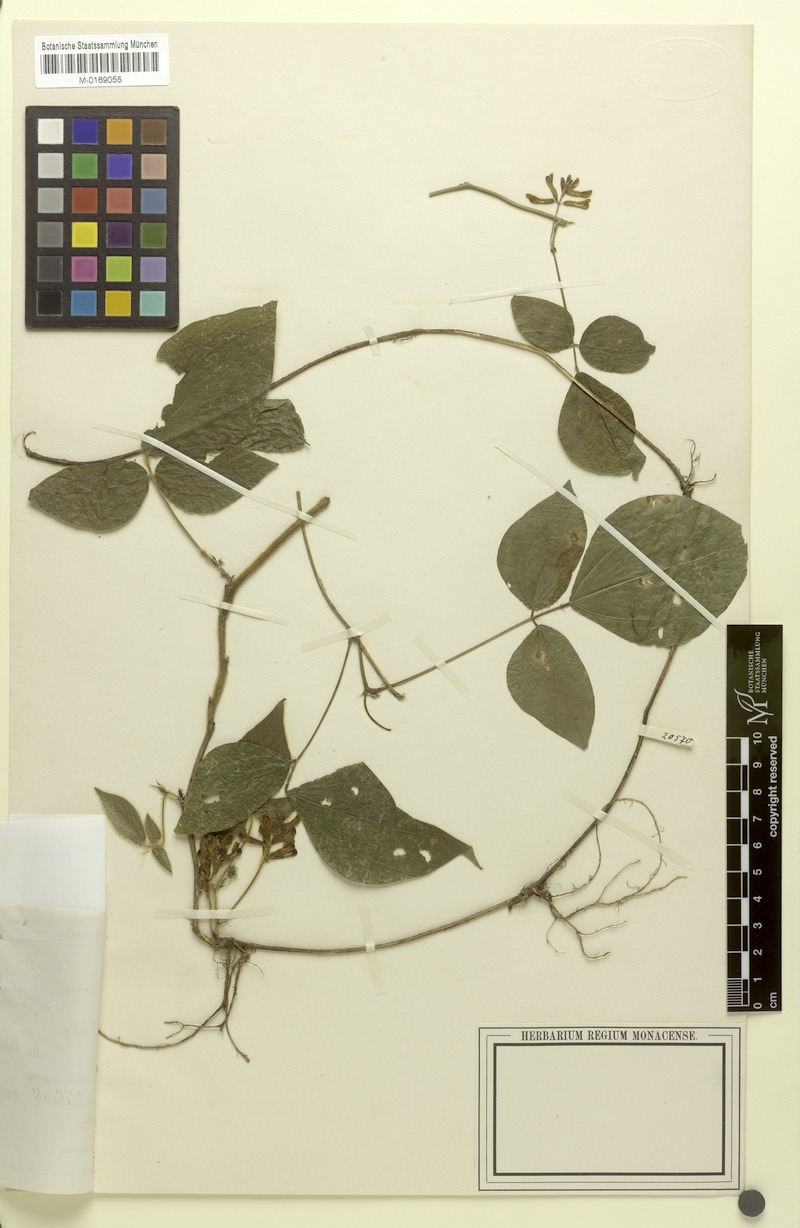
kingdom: Plantae
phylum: Tracheophyta
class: Magnoliopsida
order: Fabales
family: Fabaceae
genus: Harashuteria
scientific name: Harashuteria hirsuta
